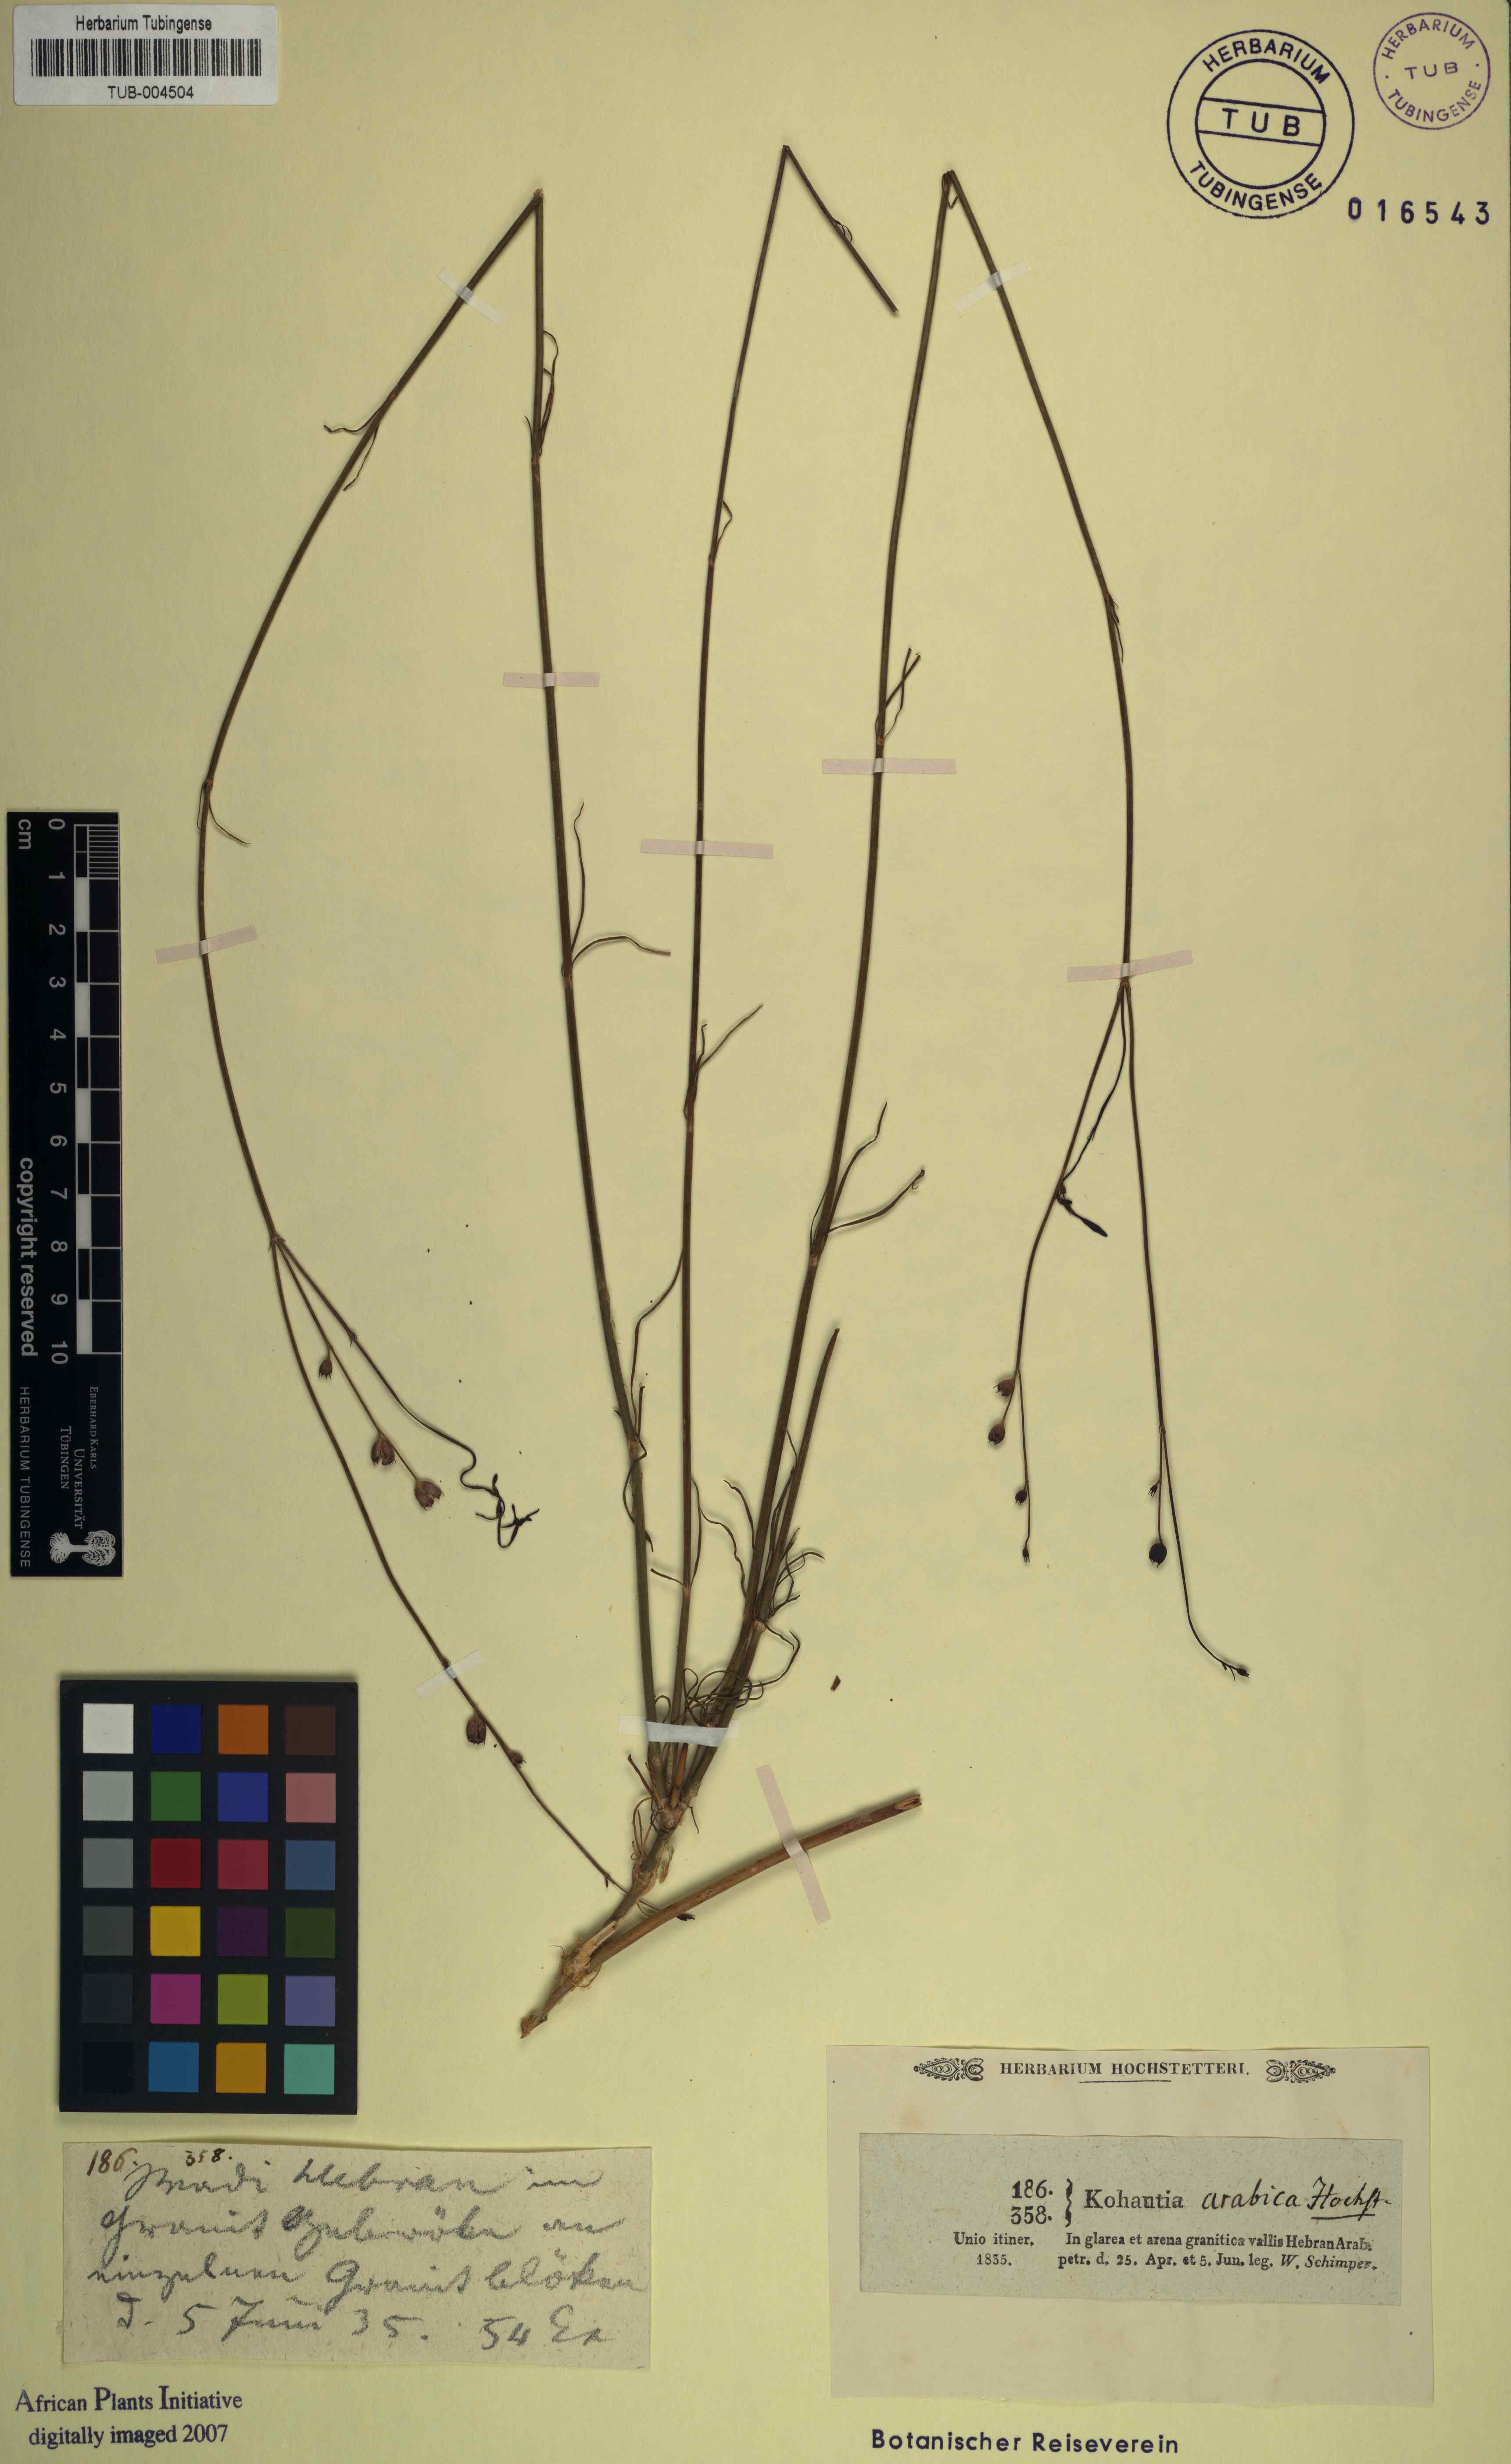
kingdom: Plantae
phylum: Tracheophyta
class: Magnoliopsida
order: Gentianales
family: Rubiaceae
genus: Kohautia
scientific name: Kohautia caespitosa
